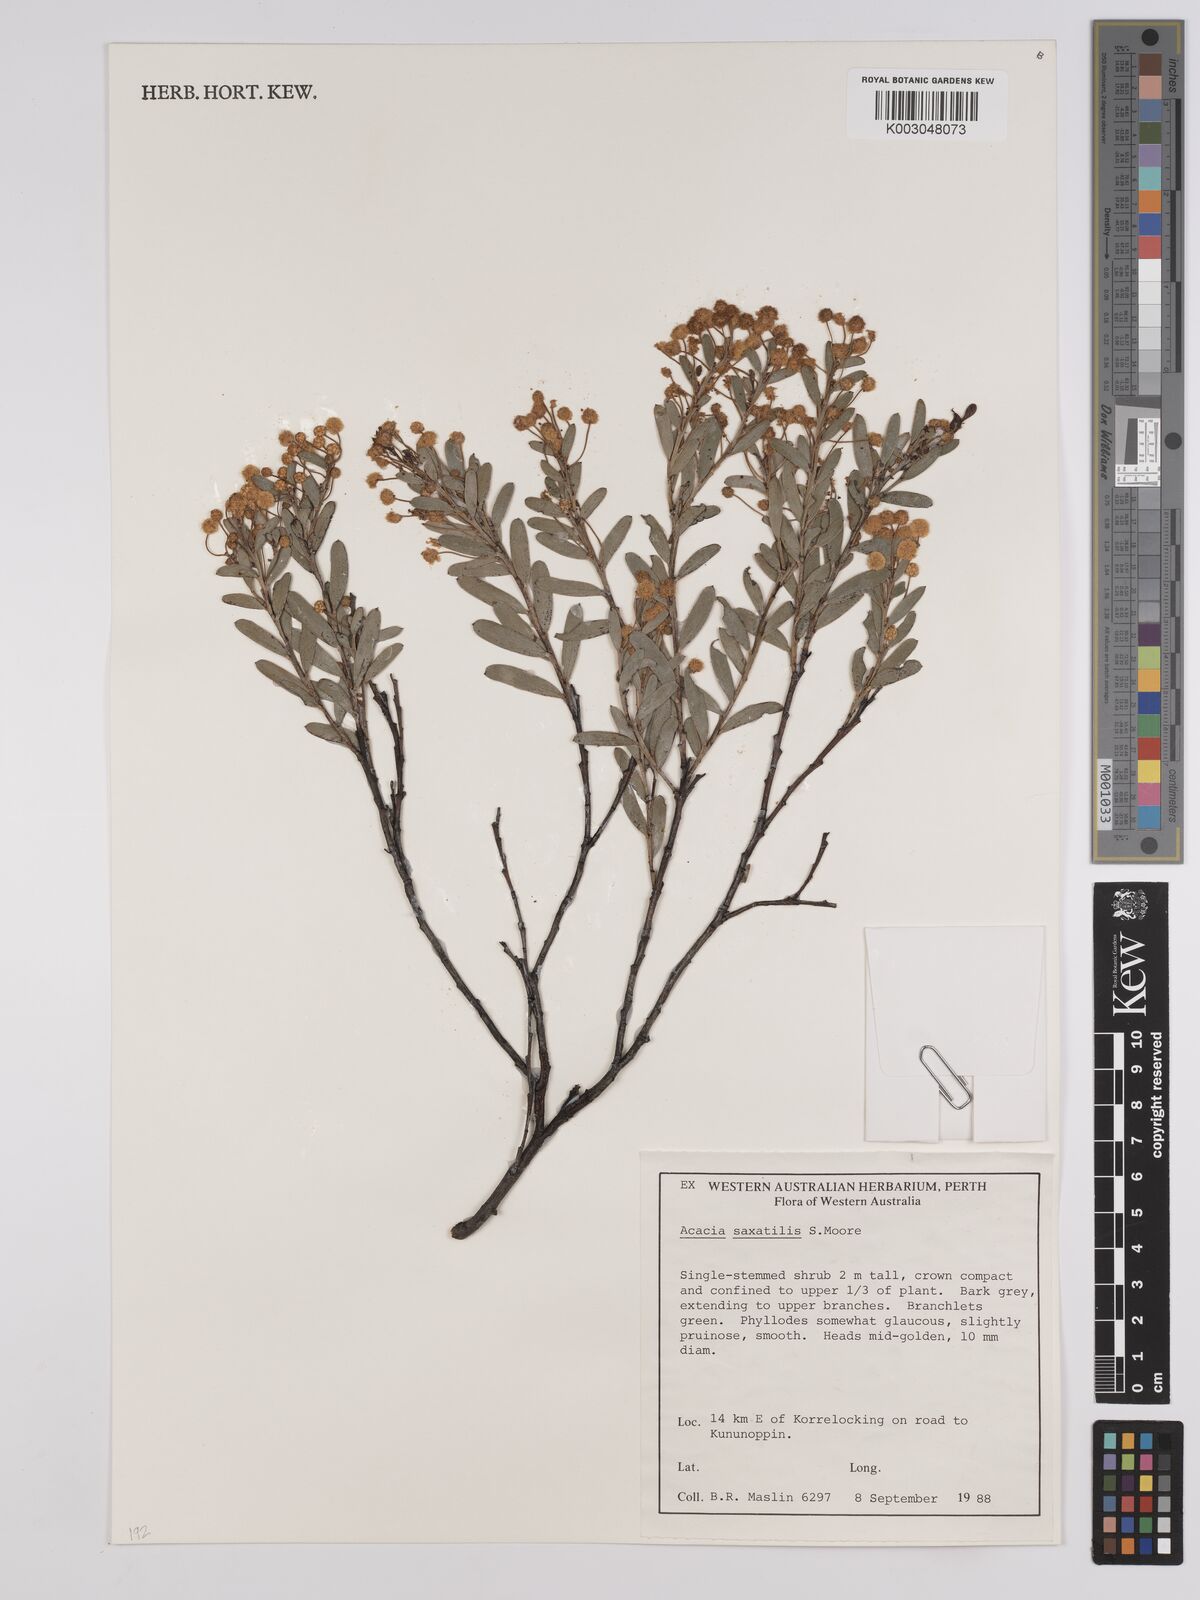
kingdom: Plantae
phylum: Tracheophyta
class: Magnoliopsida
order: Fabales
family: Fabaceae
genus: Acacia
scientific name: Acacia saxatilis
